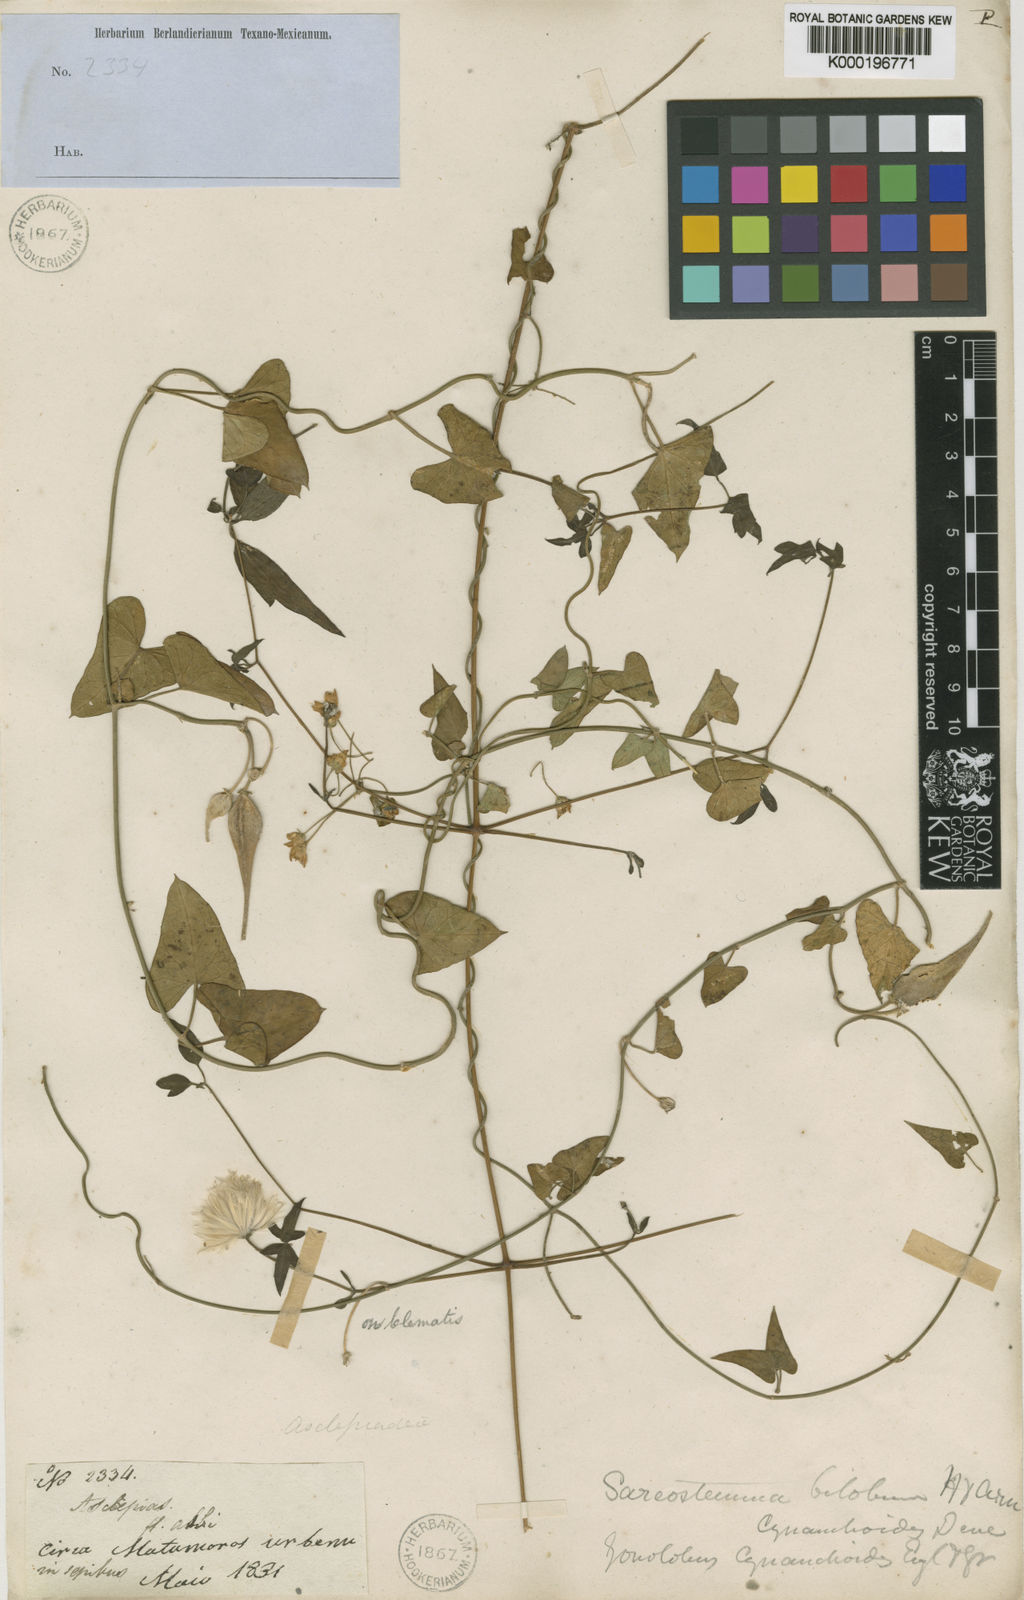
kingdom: Plantae
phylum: Tracheophyta
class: Magnoliopsida
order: Gentianales
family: Apocynaceae
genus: Funastrum
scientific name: Funastrum cynanchoides
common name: Climbing-milkweed
